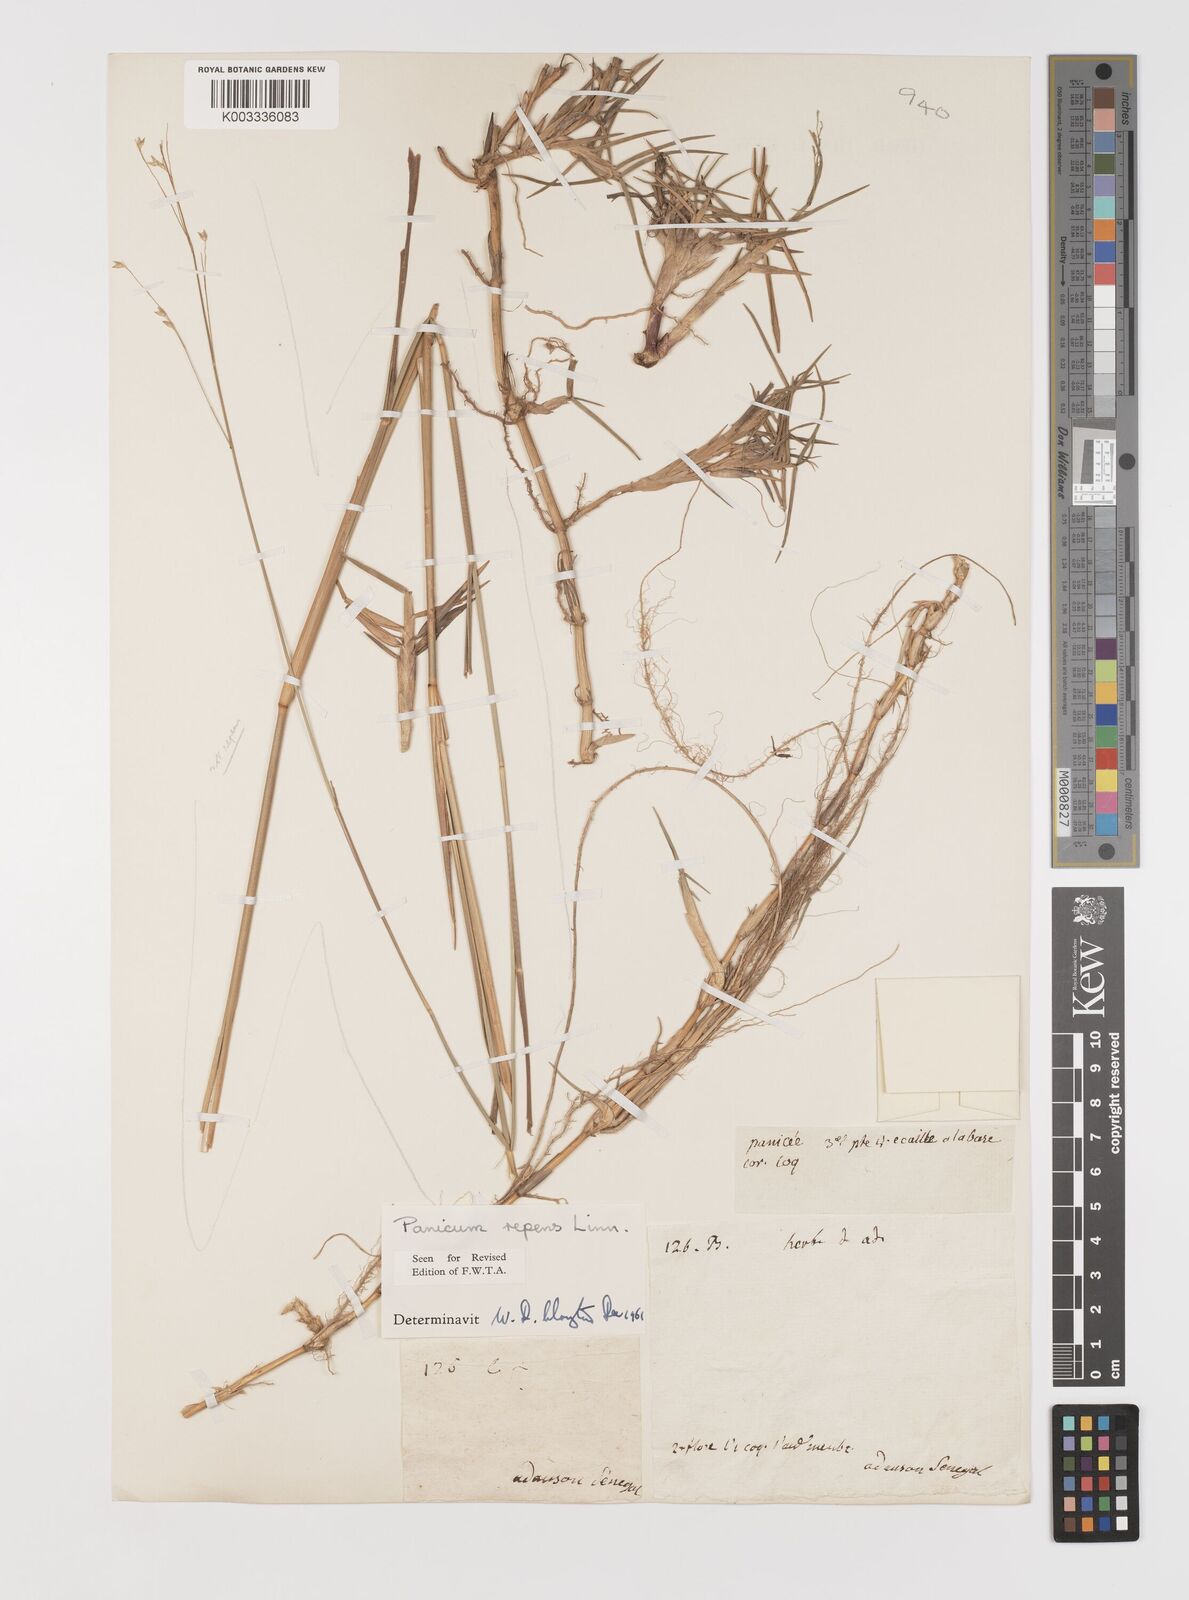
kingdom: Plantae
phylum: Tracheophyta
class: Liliopsida
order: Poales
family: Poaceae
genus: Panicum
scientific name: Panicum repens
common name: Torpedo grass
